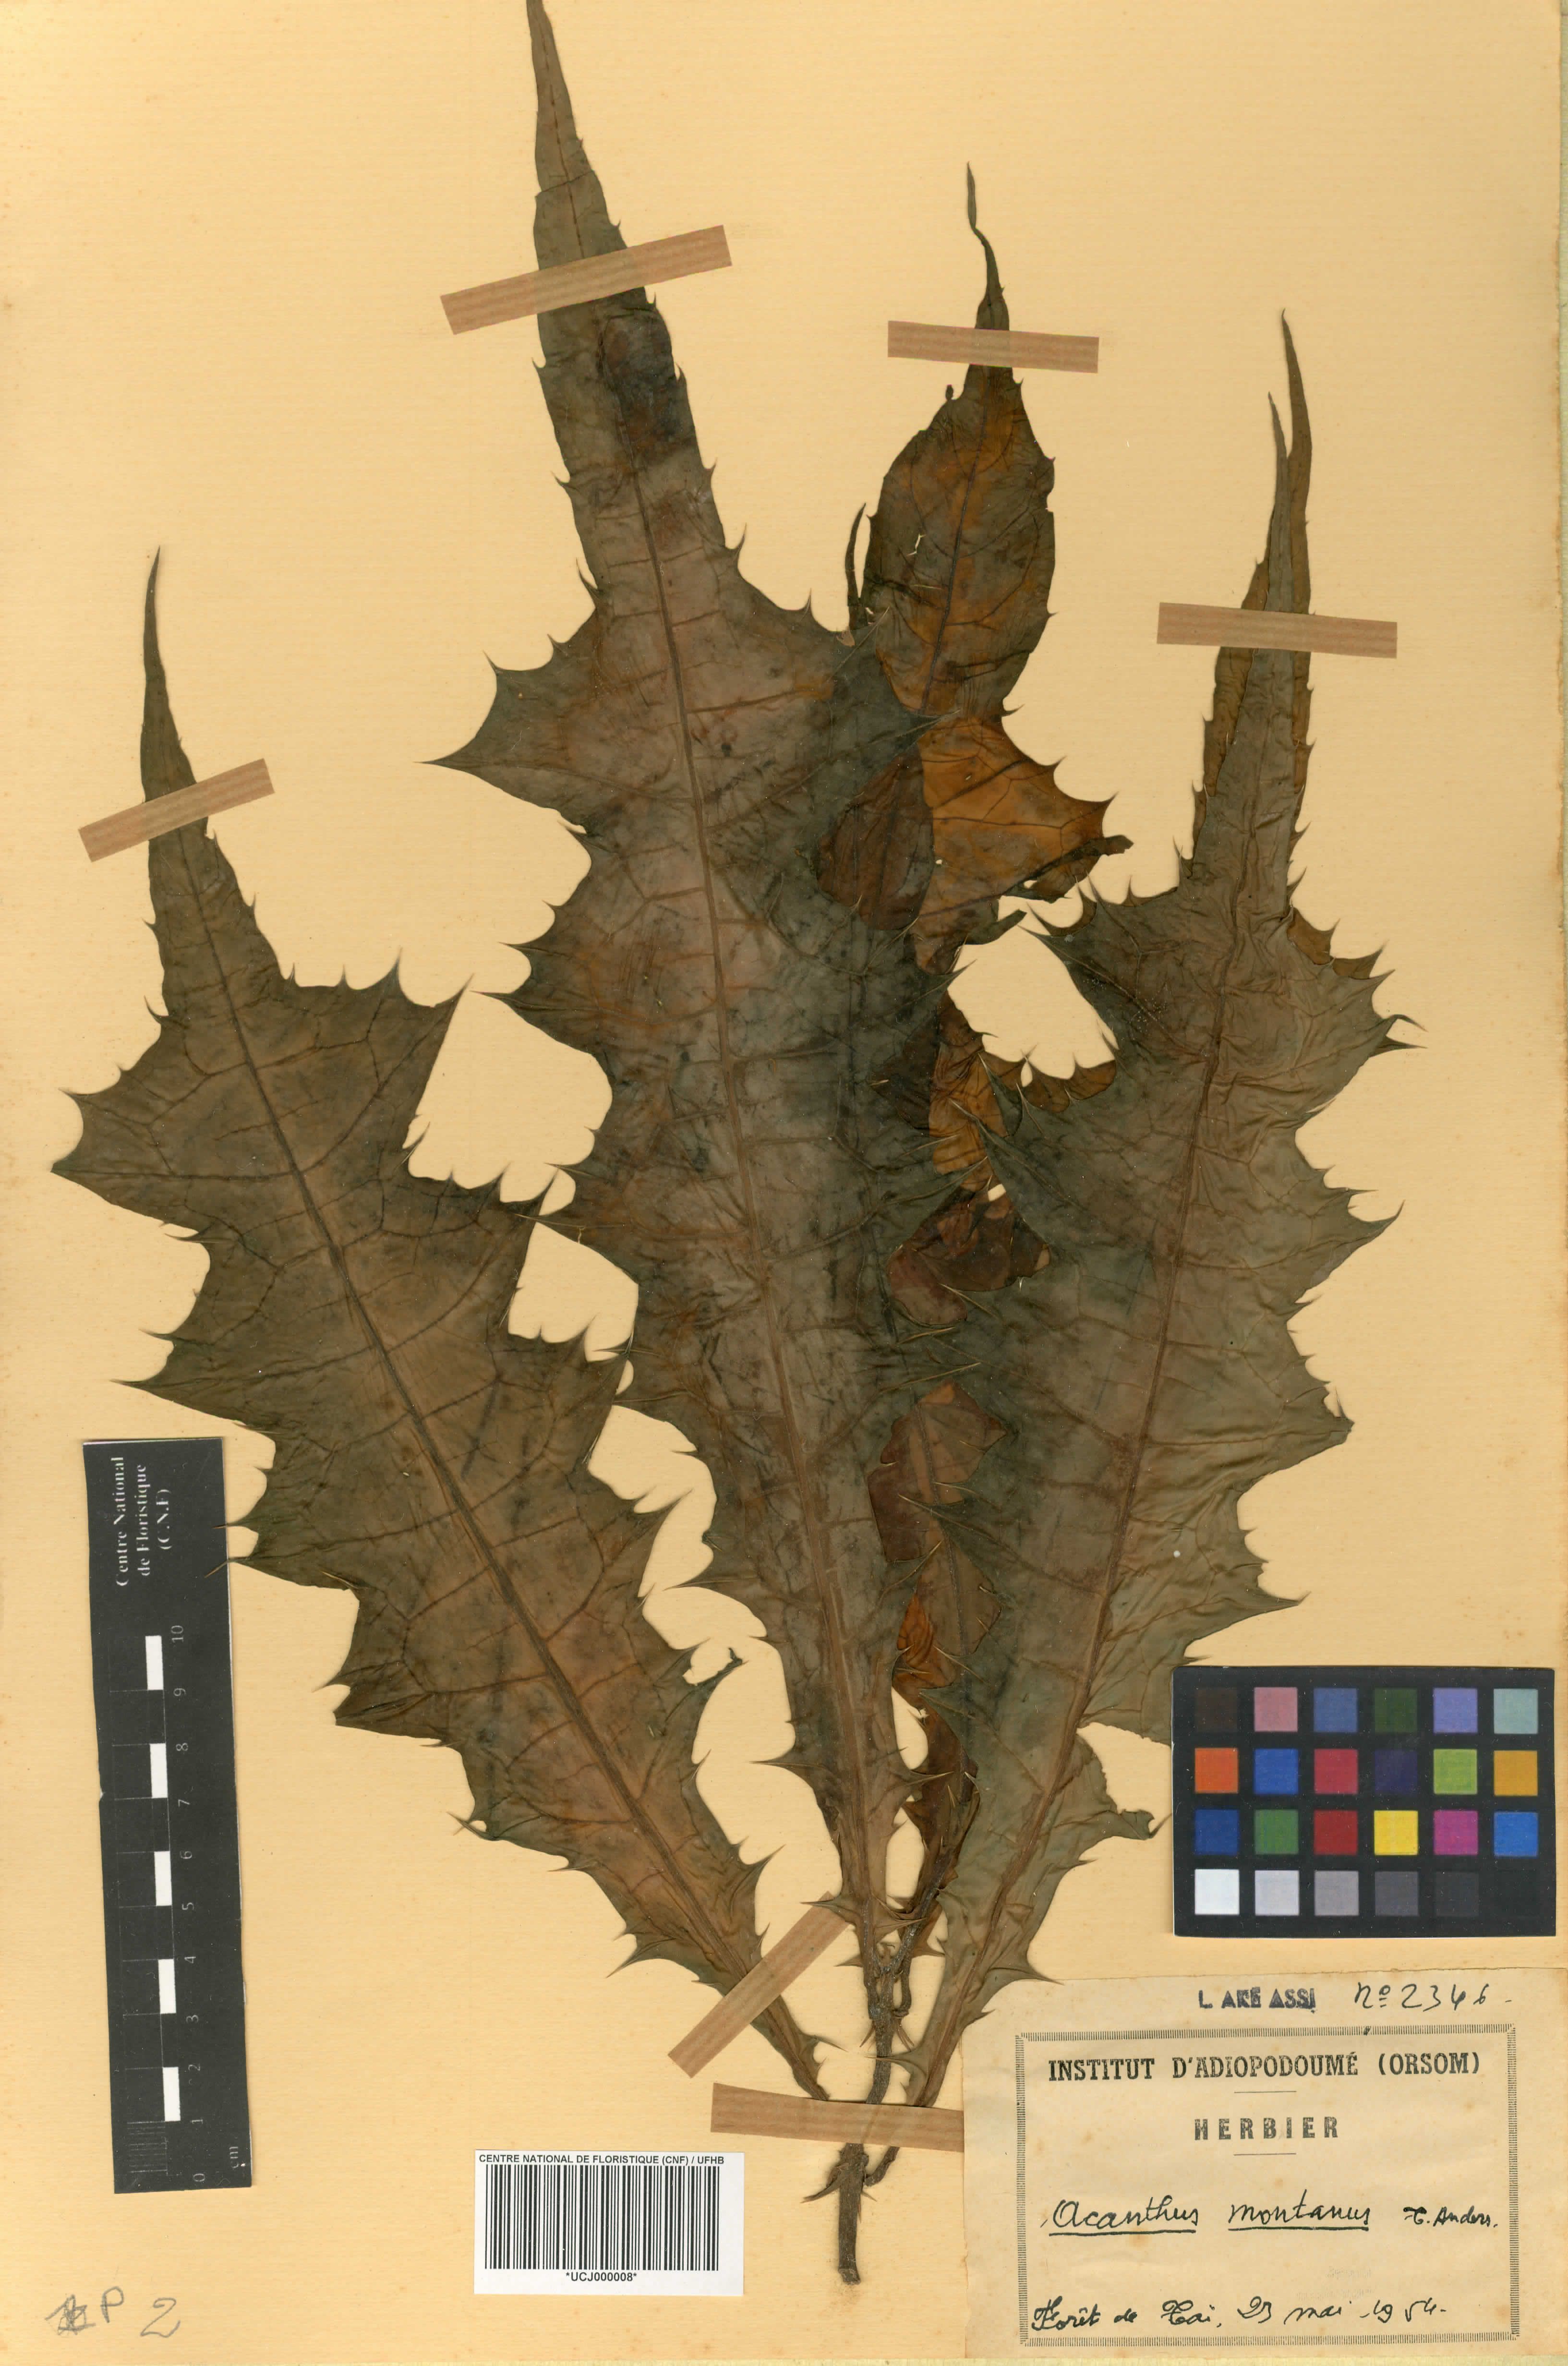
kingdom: Plantae
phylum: Tracheophyta
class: Magnoliopsida
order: Lamiales
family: Acanthaceae
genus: Acanthus
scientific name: Acanthus montanus
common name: Mountain thistle
